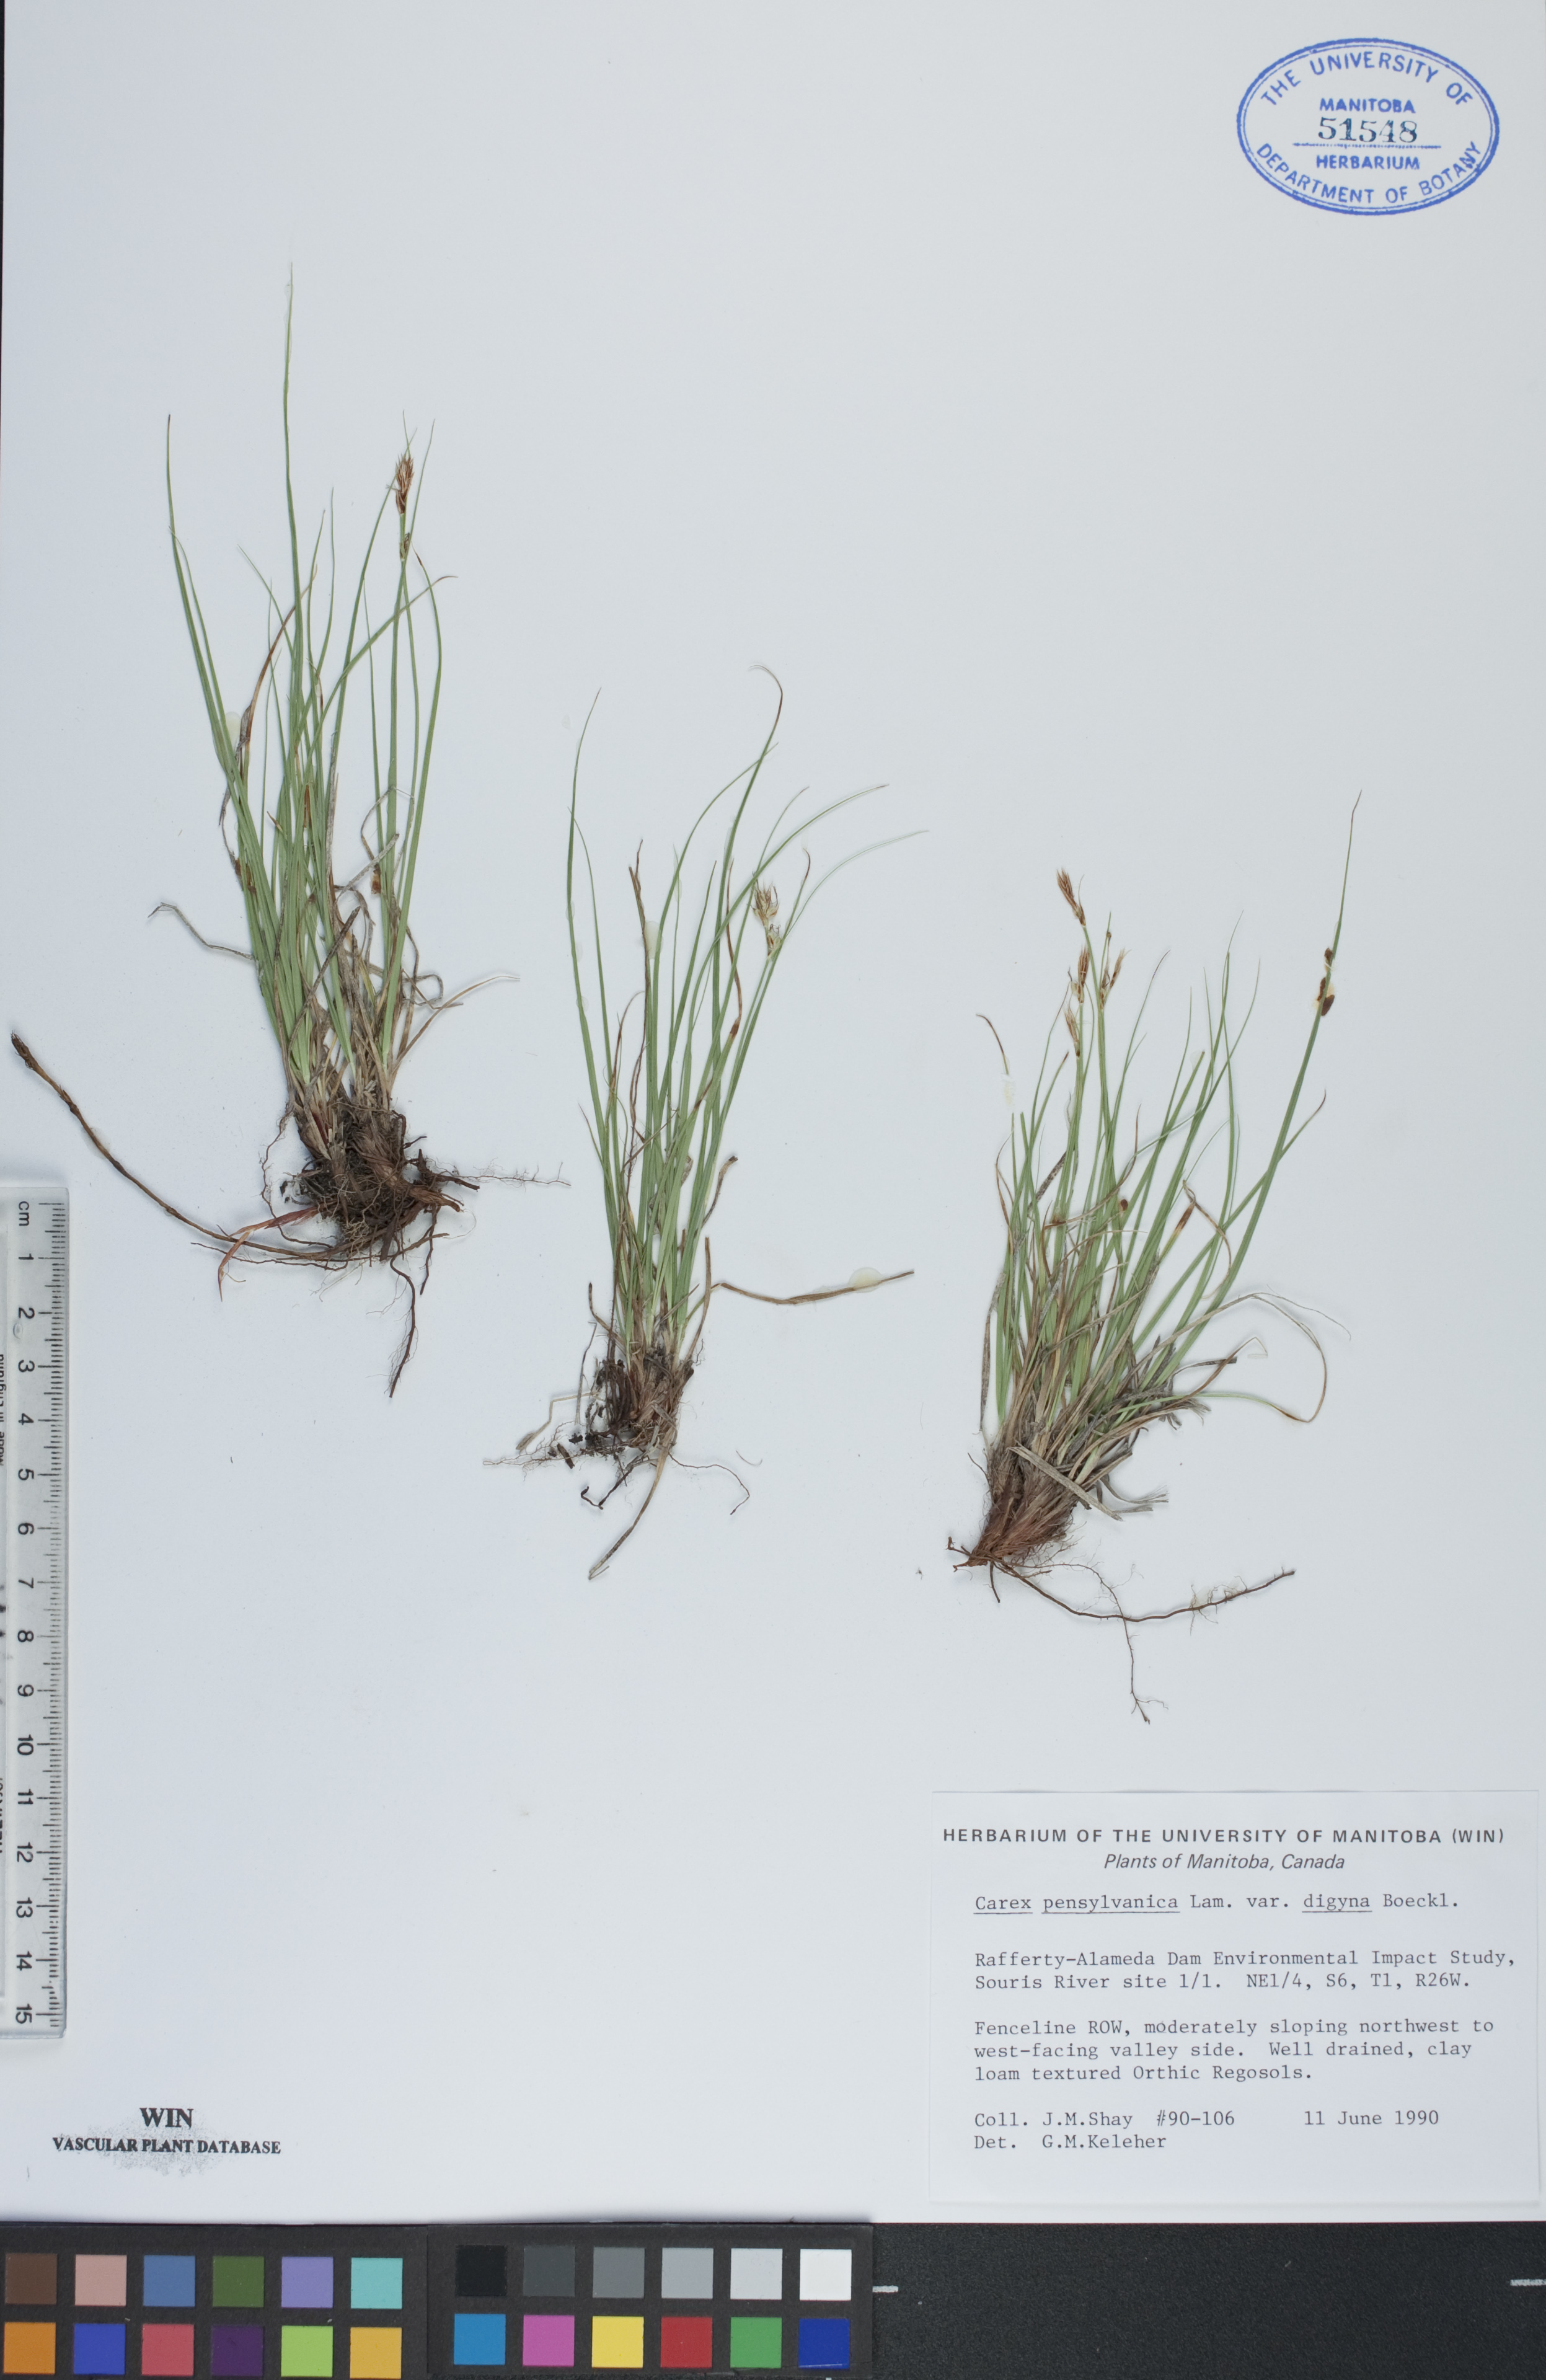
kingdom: Plantae
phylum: Tracheophyta
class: Liliopsida
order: Poales
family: Cyperaceae
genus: Carex
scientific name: Carex pensylvanica
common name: Common oak sedge
